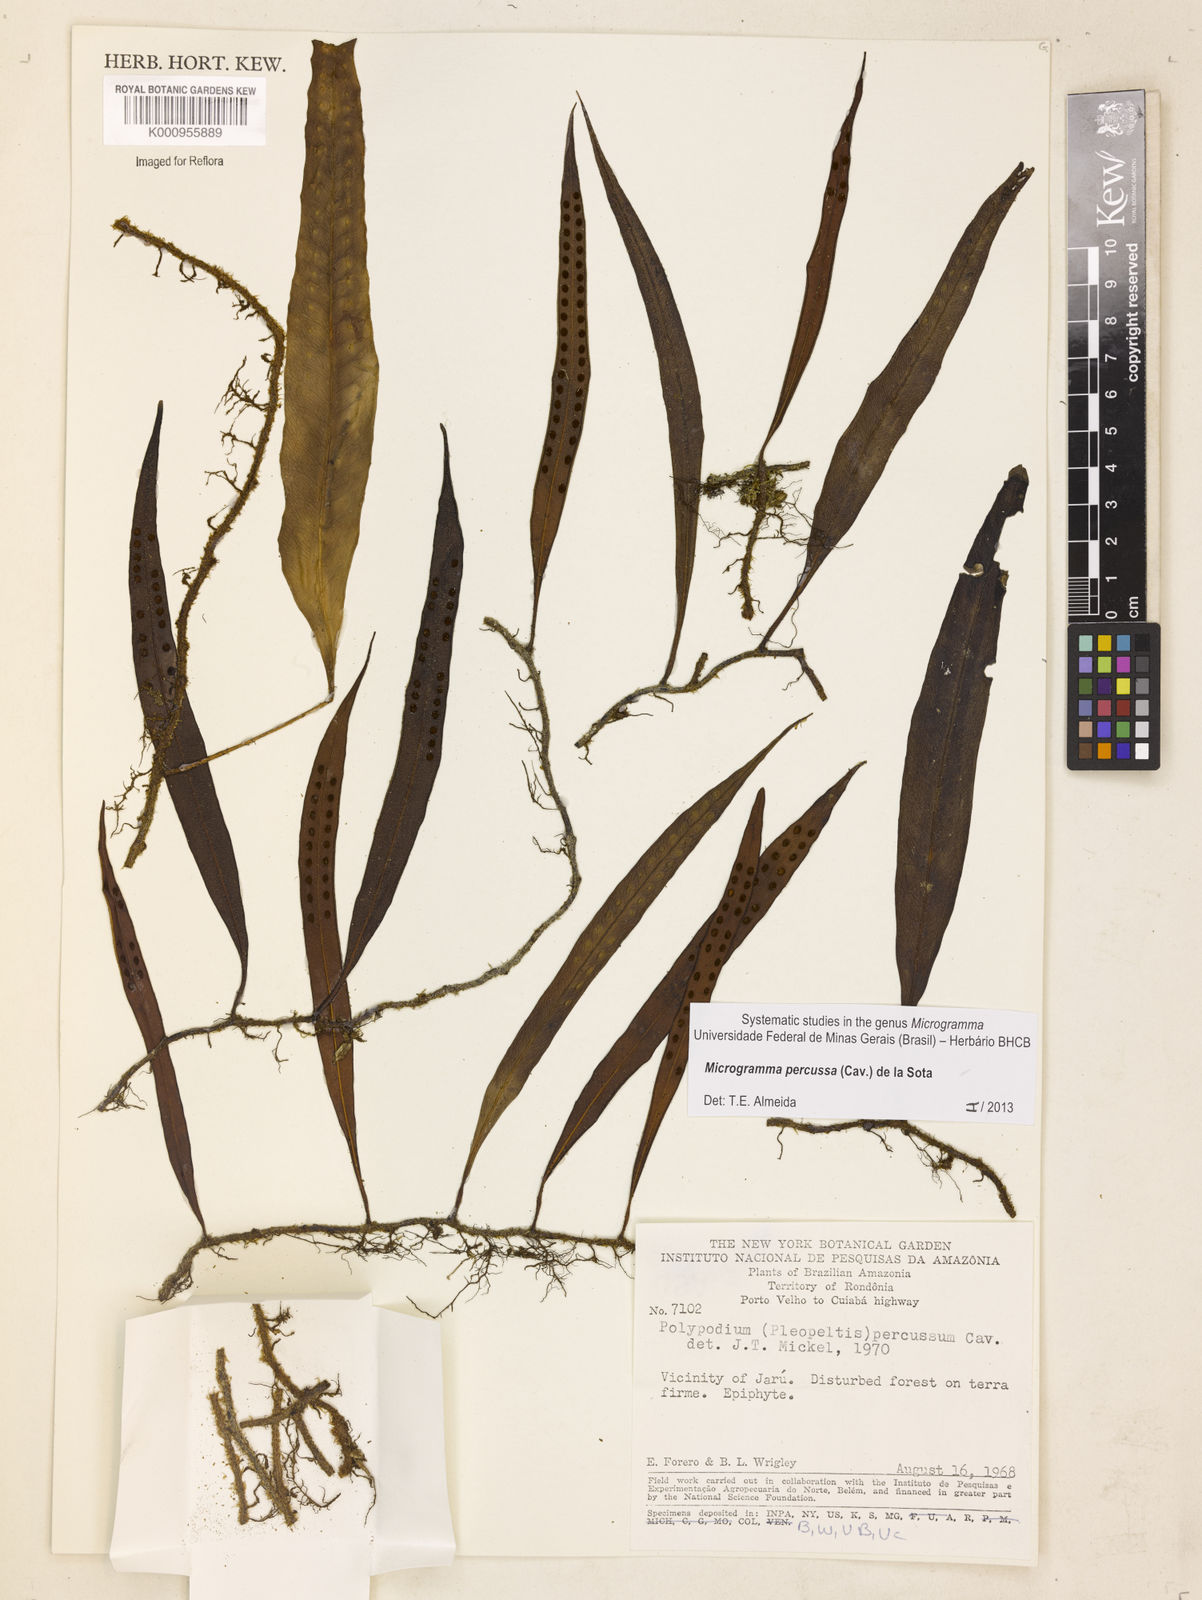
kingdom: Plantae
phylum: Tracheophyta
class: Polypodiopsida
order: Polypodiales
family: Polypodiaceae
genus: Microgramma
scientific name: Microgramma percussa
